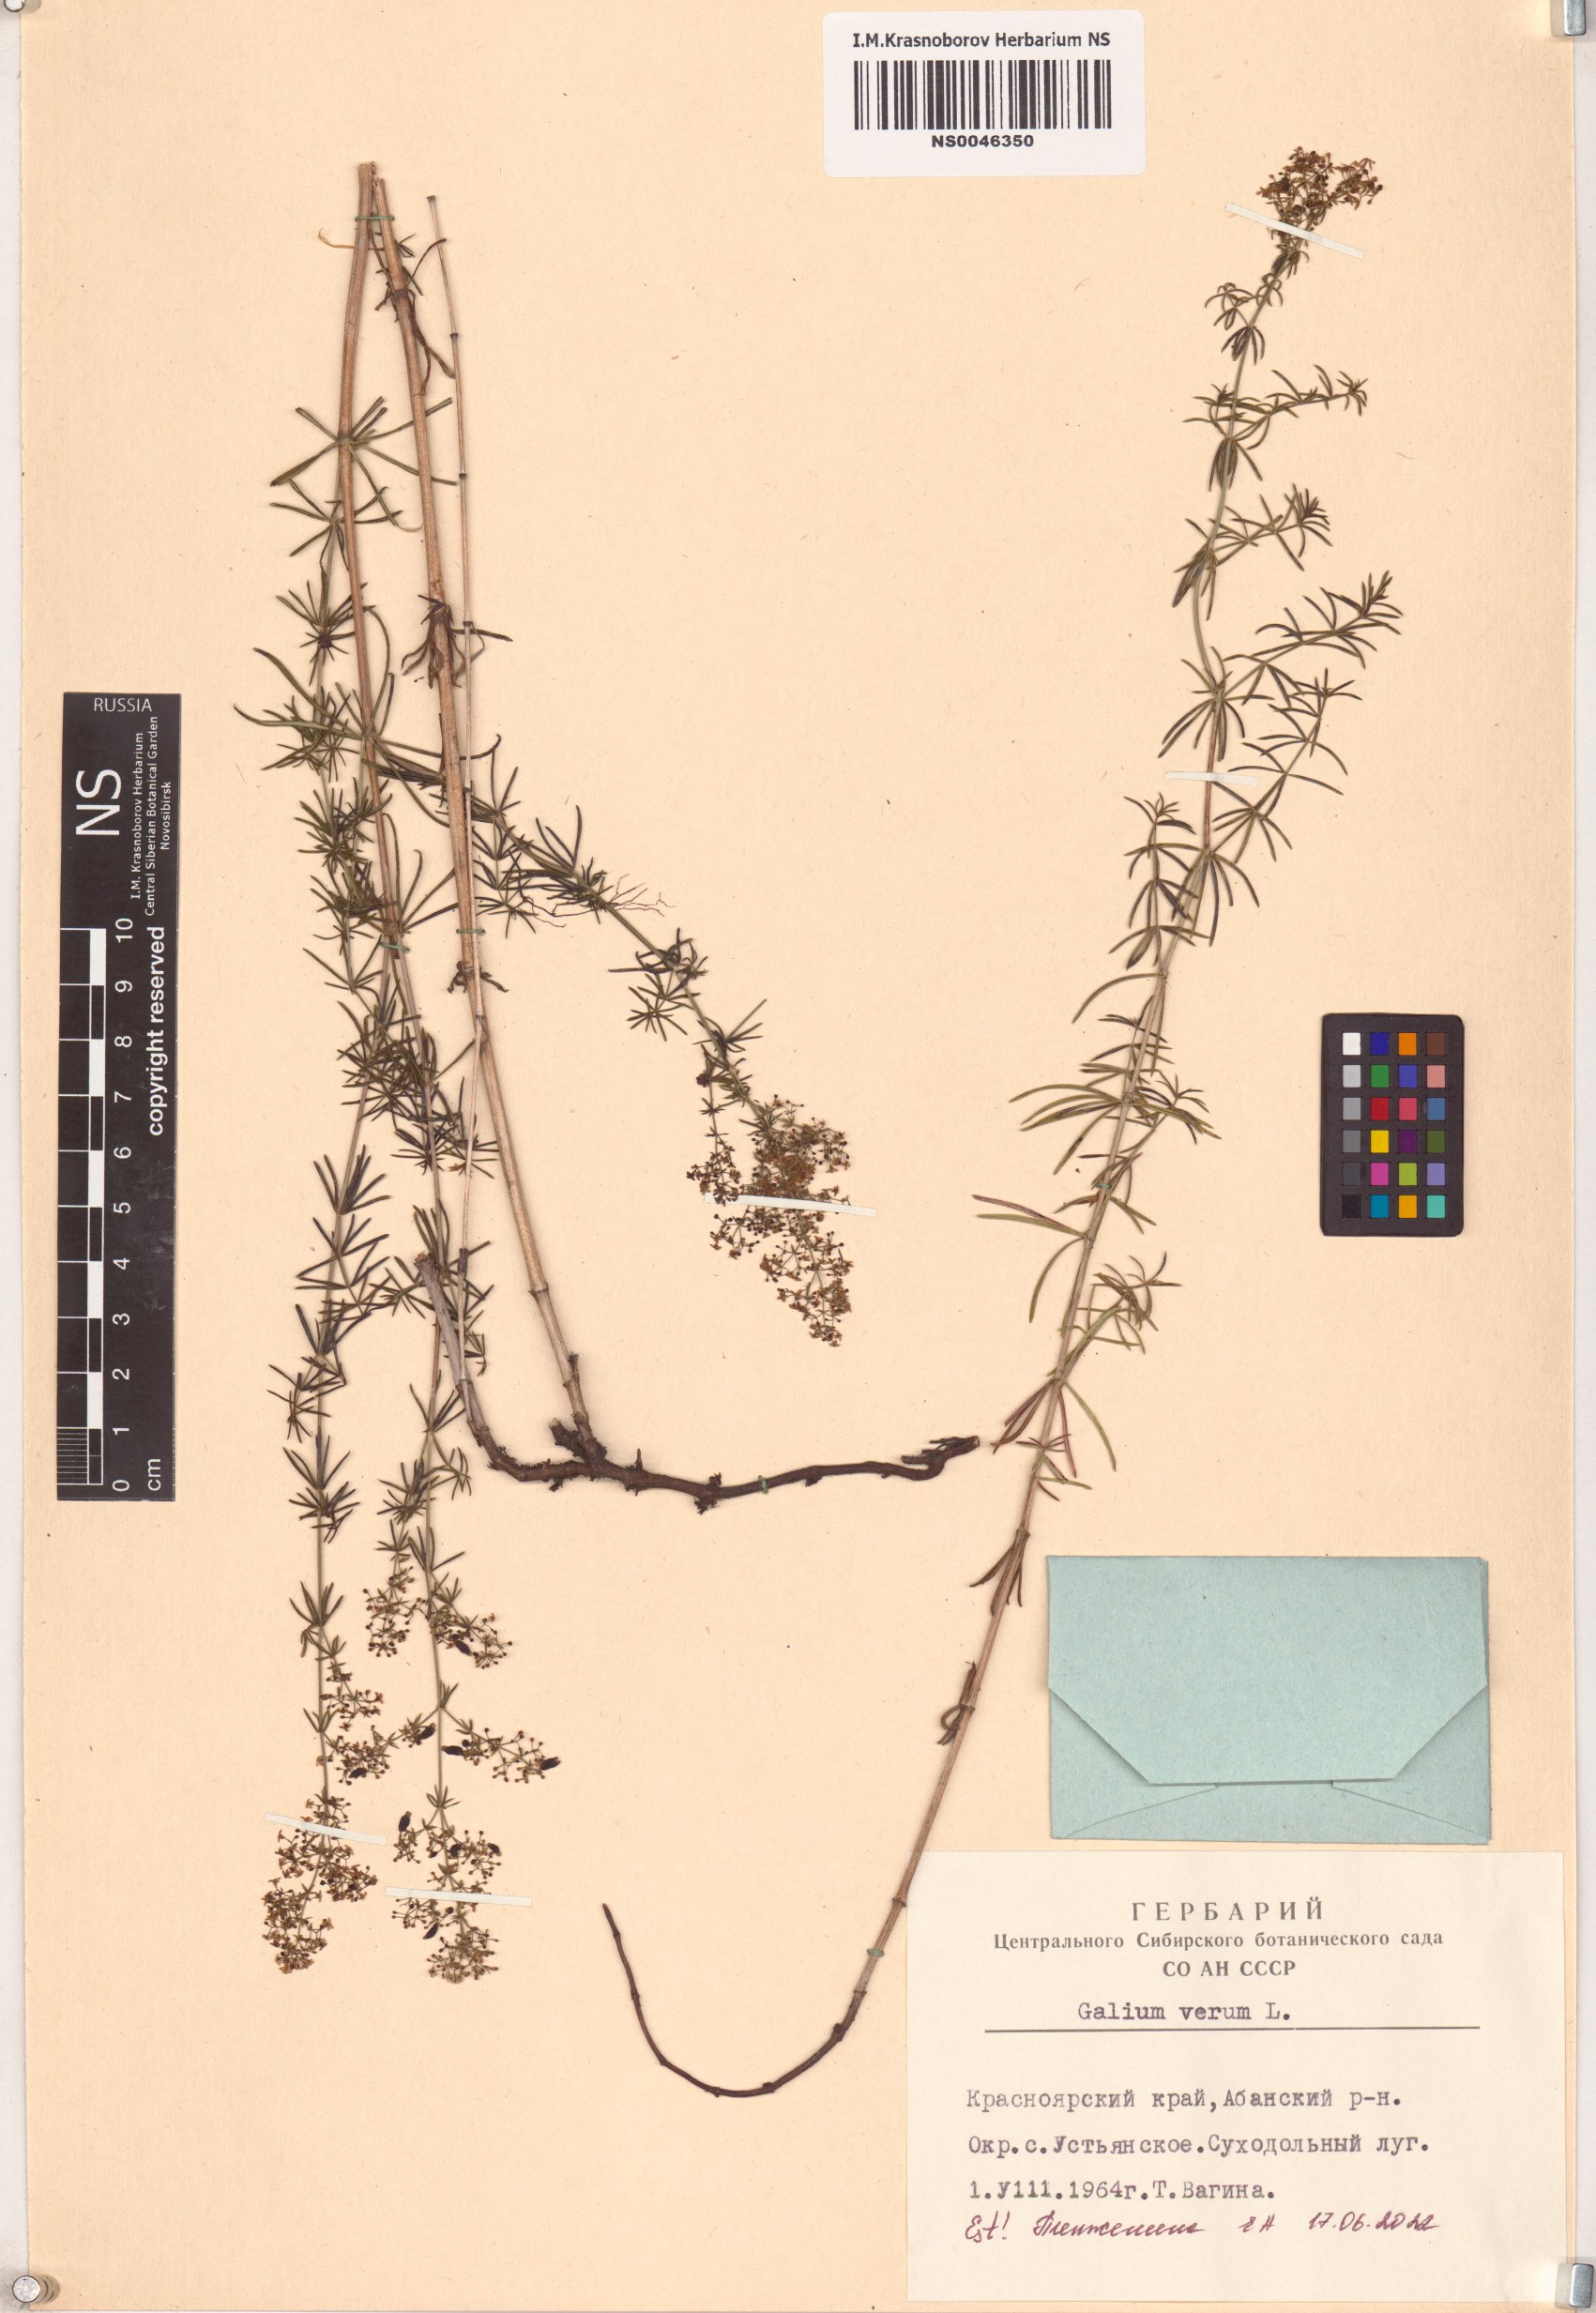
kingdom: Plantae
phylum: Tracheophyta
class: Magnoliopsida
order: Gentianales
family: Rubiaceae
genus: Galium
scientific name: Galium verum
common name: Lady's bedstraw
